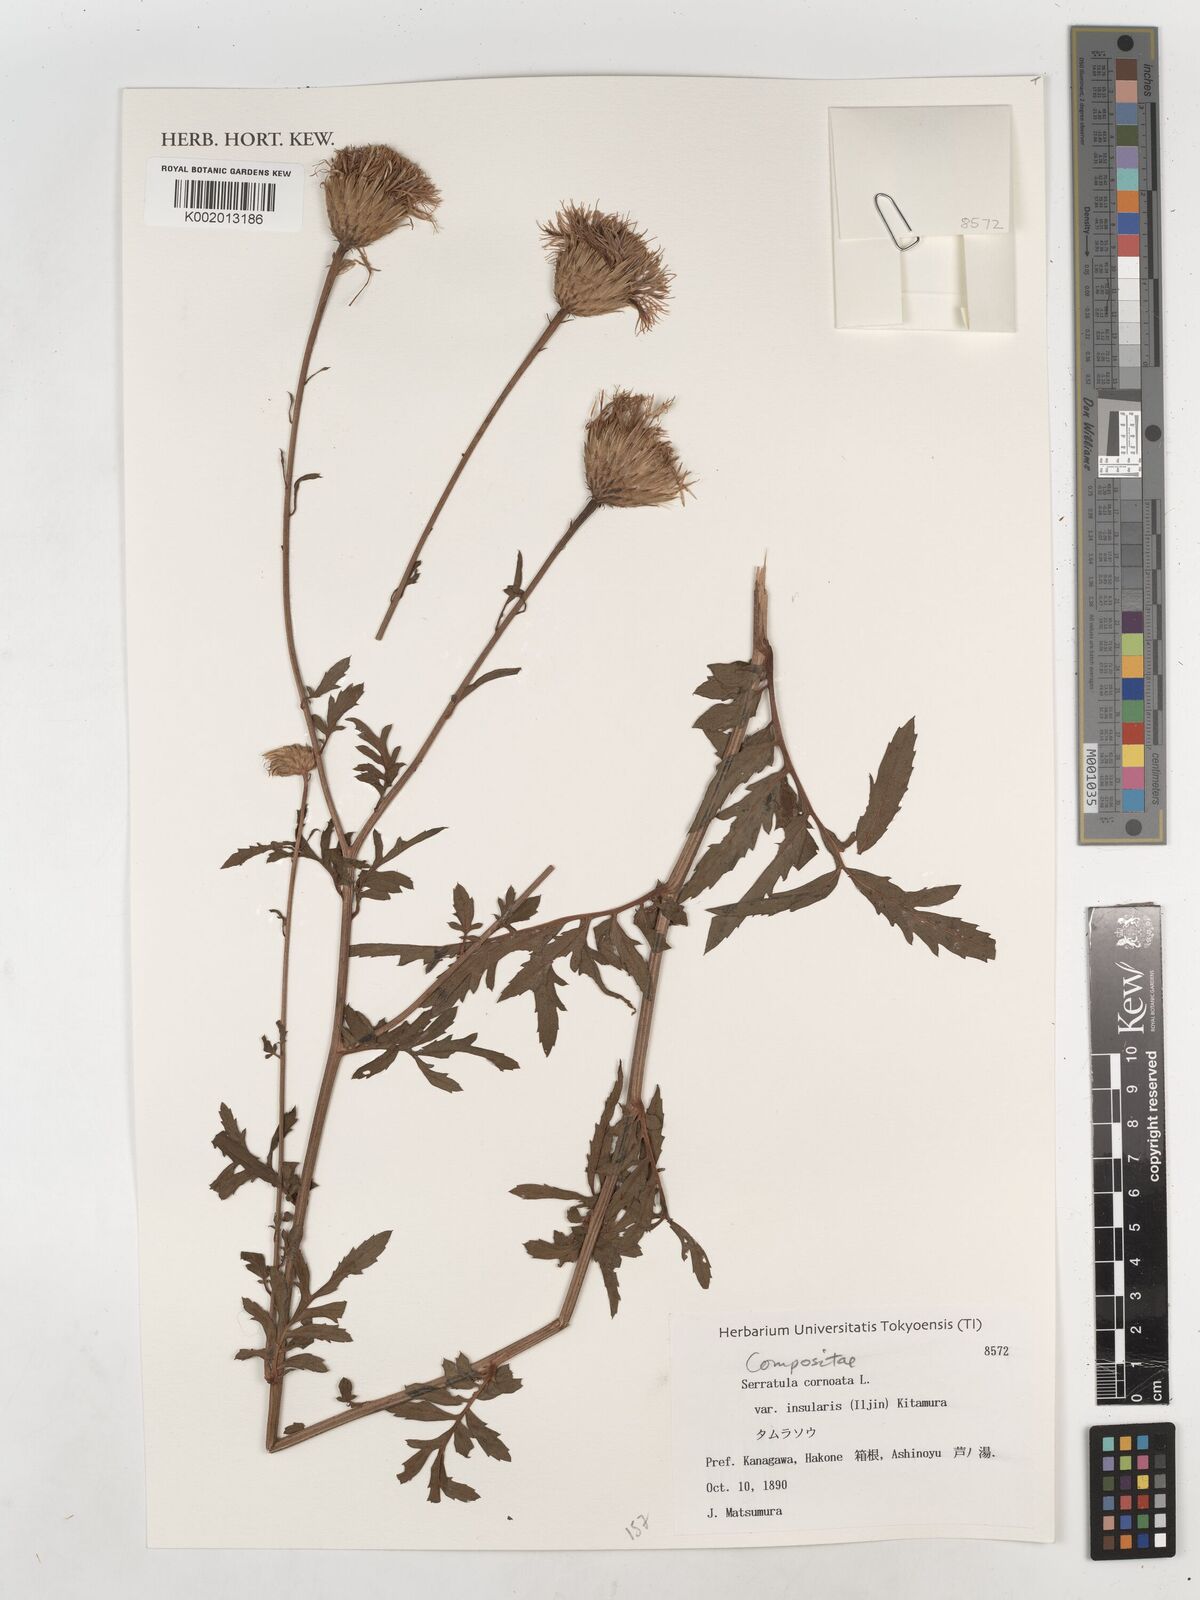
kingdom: Plantae
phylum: Tracheophyta
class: Magnoliopsida
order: Asterales
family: Asteraceae
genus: Serratula
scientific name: Serratula coronata
